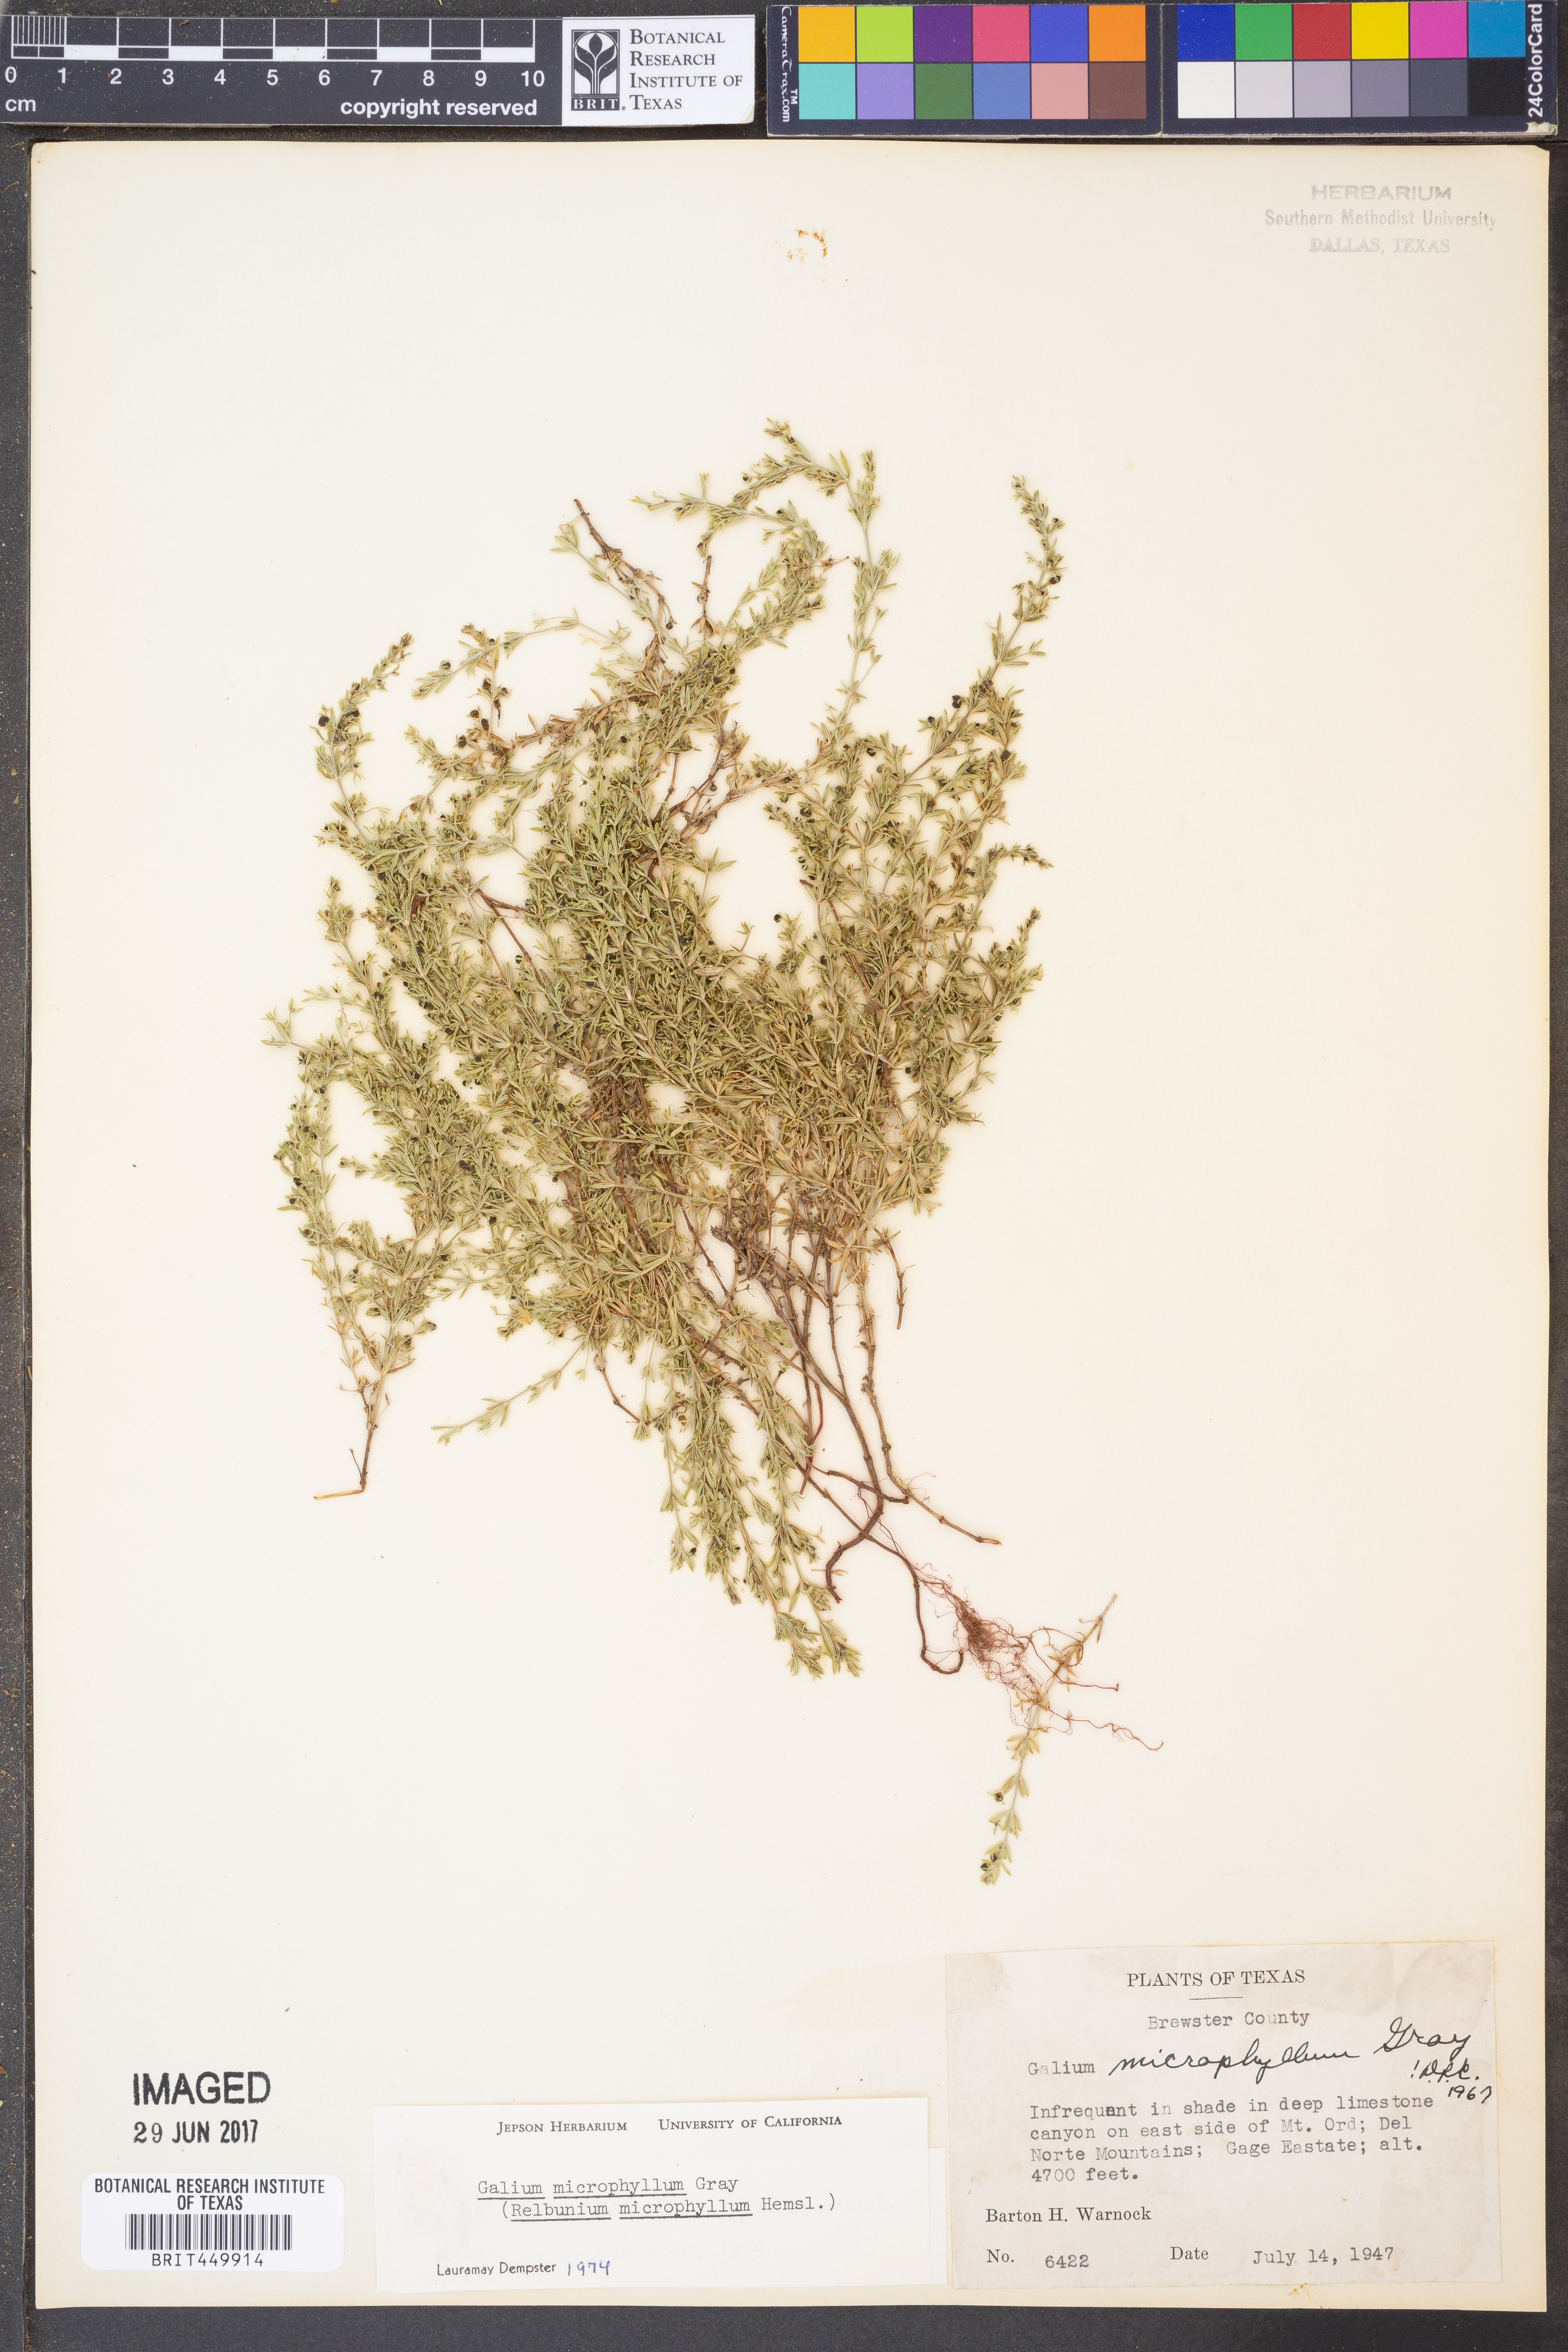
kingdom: Plantae
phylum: Tracheophyta
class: Magnoliopsida
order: Gentianales
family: Rubiaceae
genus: Galium
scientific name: Galium microphyllum
